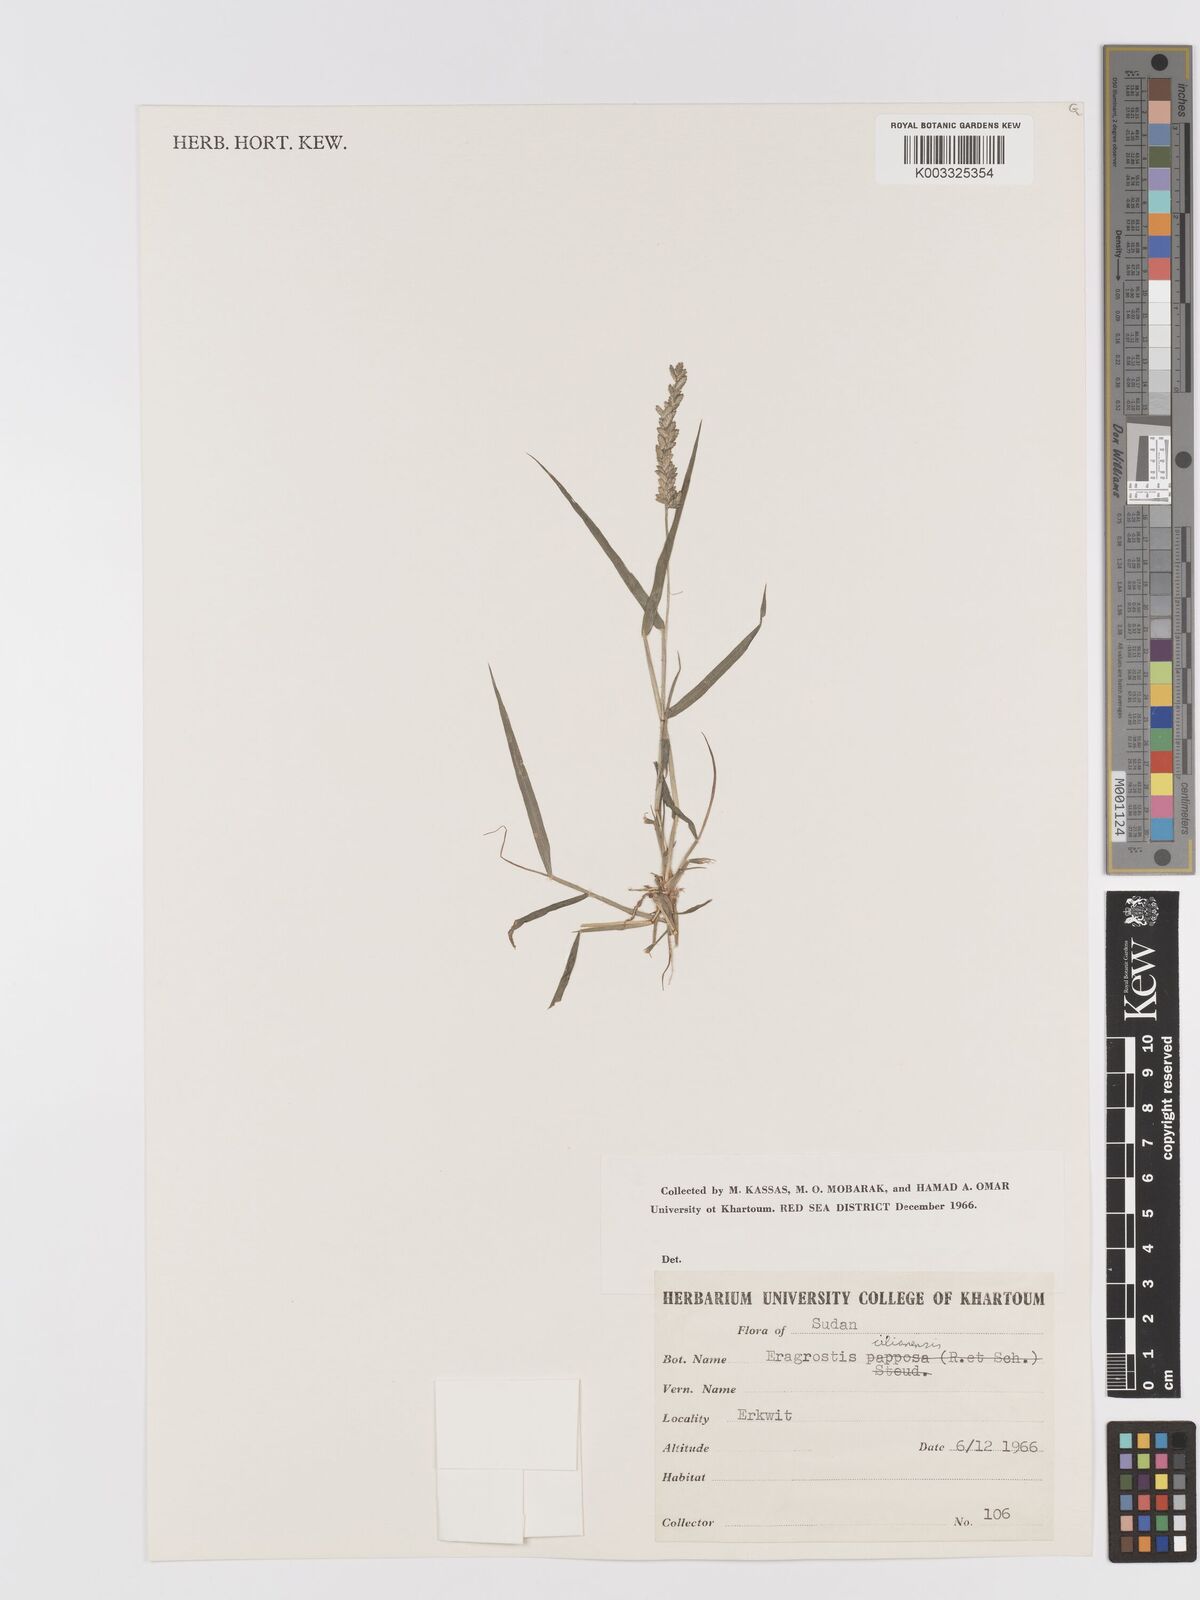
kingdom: Plantae
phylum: Tracheophyta
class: Liliopsida
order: Poales
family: Poaceae
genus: Eragrostis
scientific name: Eragrostis cilianensis
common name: Stinkgrass
